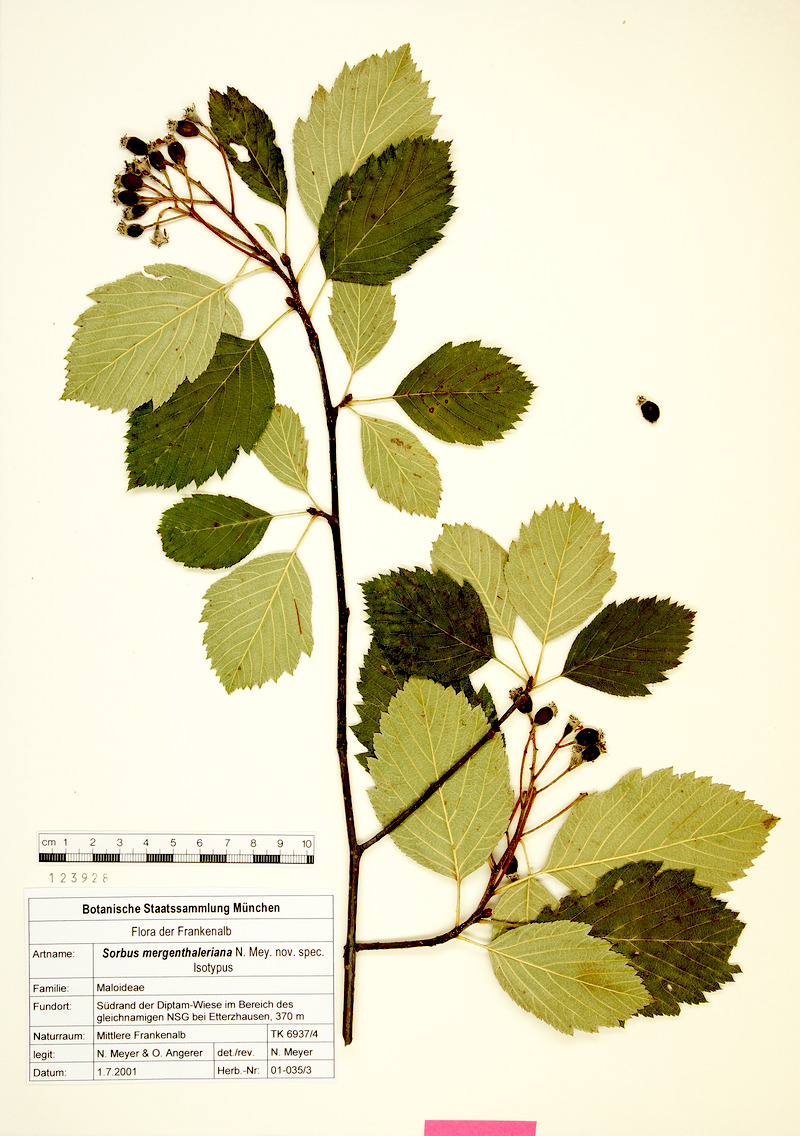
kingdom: Plantae
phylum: Tracheophyta
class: Magnoliopsida
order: Rosales
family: Rosaceae
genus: Karpatiosorbus
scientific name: Karpatiosorbus mergenthaleriana
